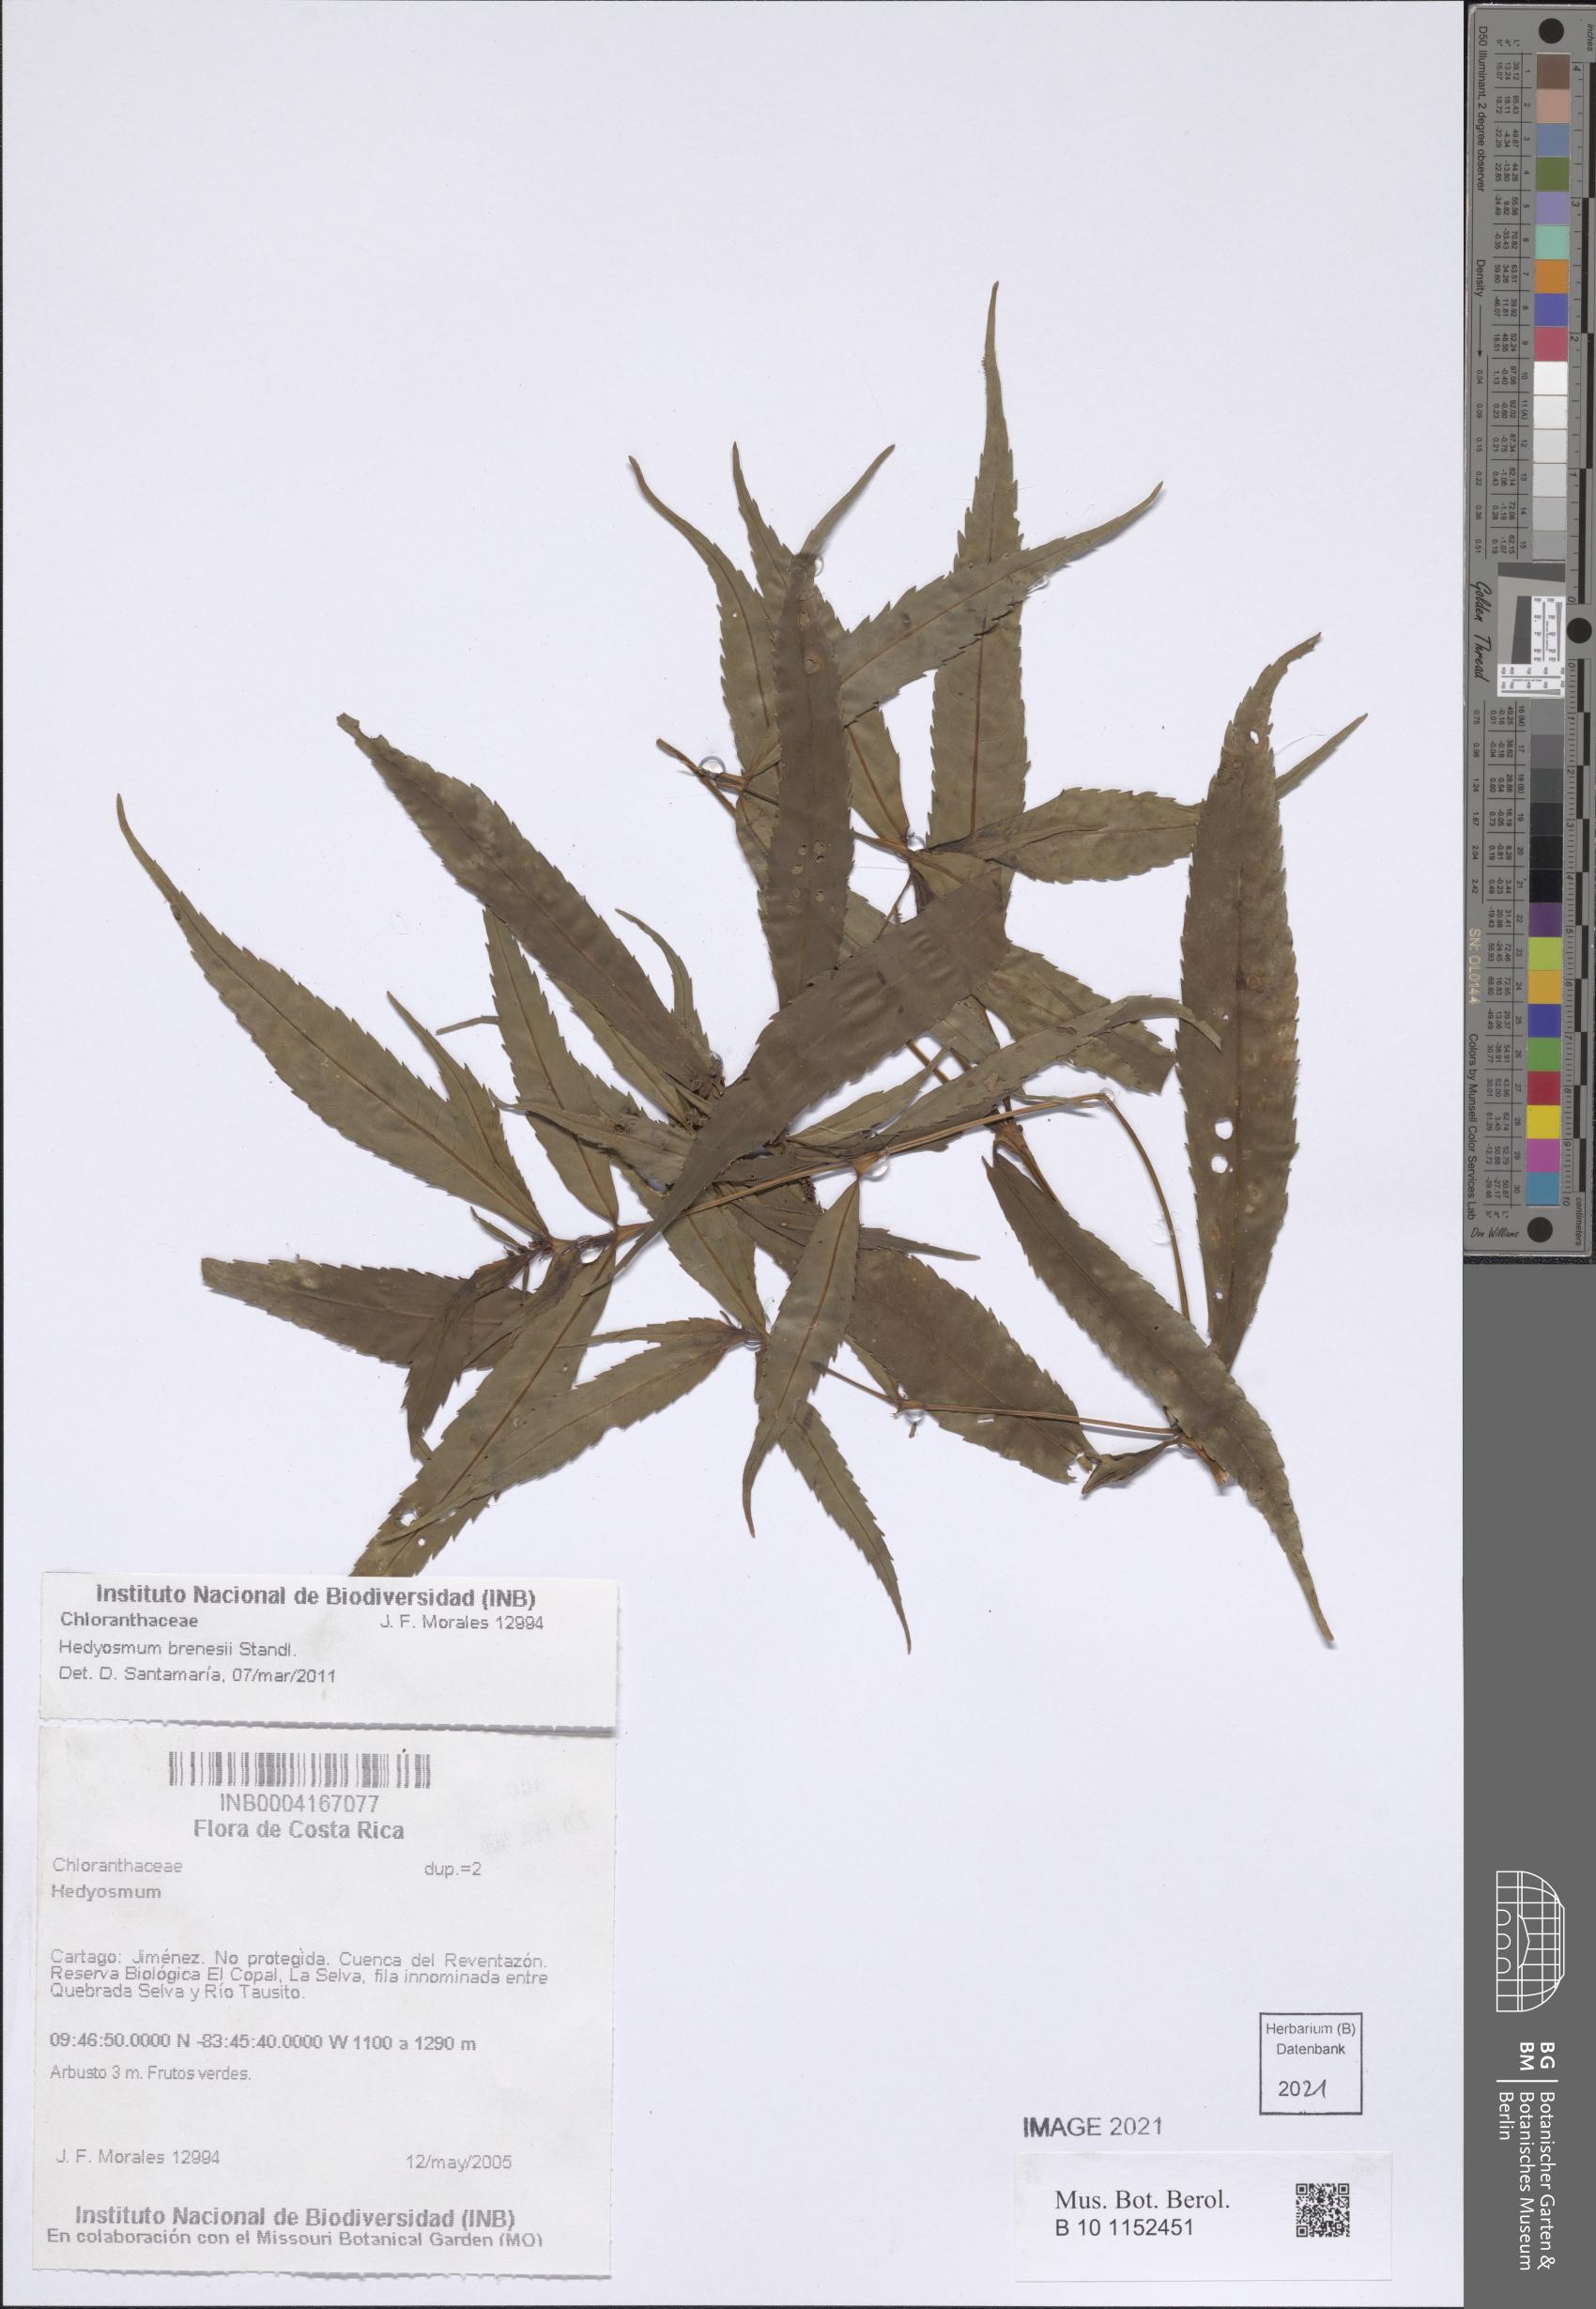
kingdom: Plantae
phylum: Tracheophyta
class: Magnoliopsida
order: Chloranthales
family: Chloranthaceae
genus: Hedyosmum
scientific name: Hedyosmum brenesii
